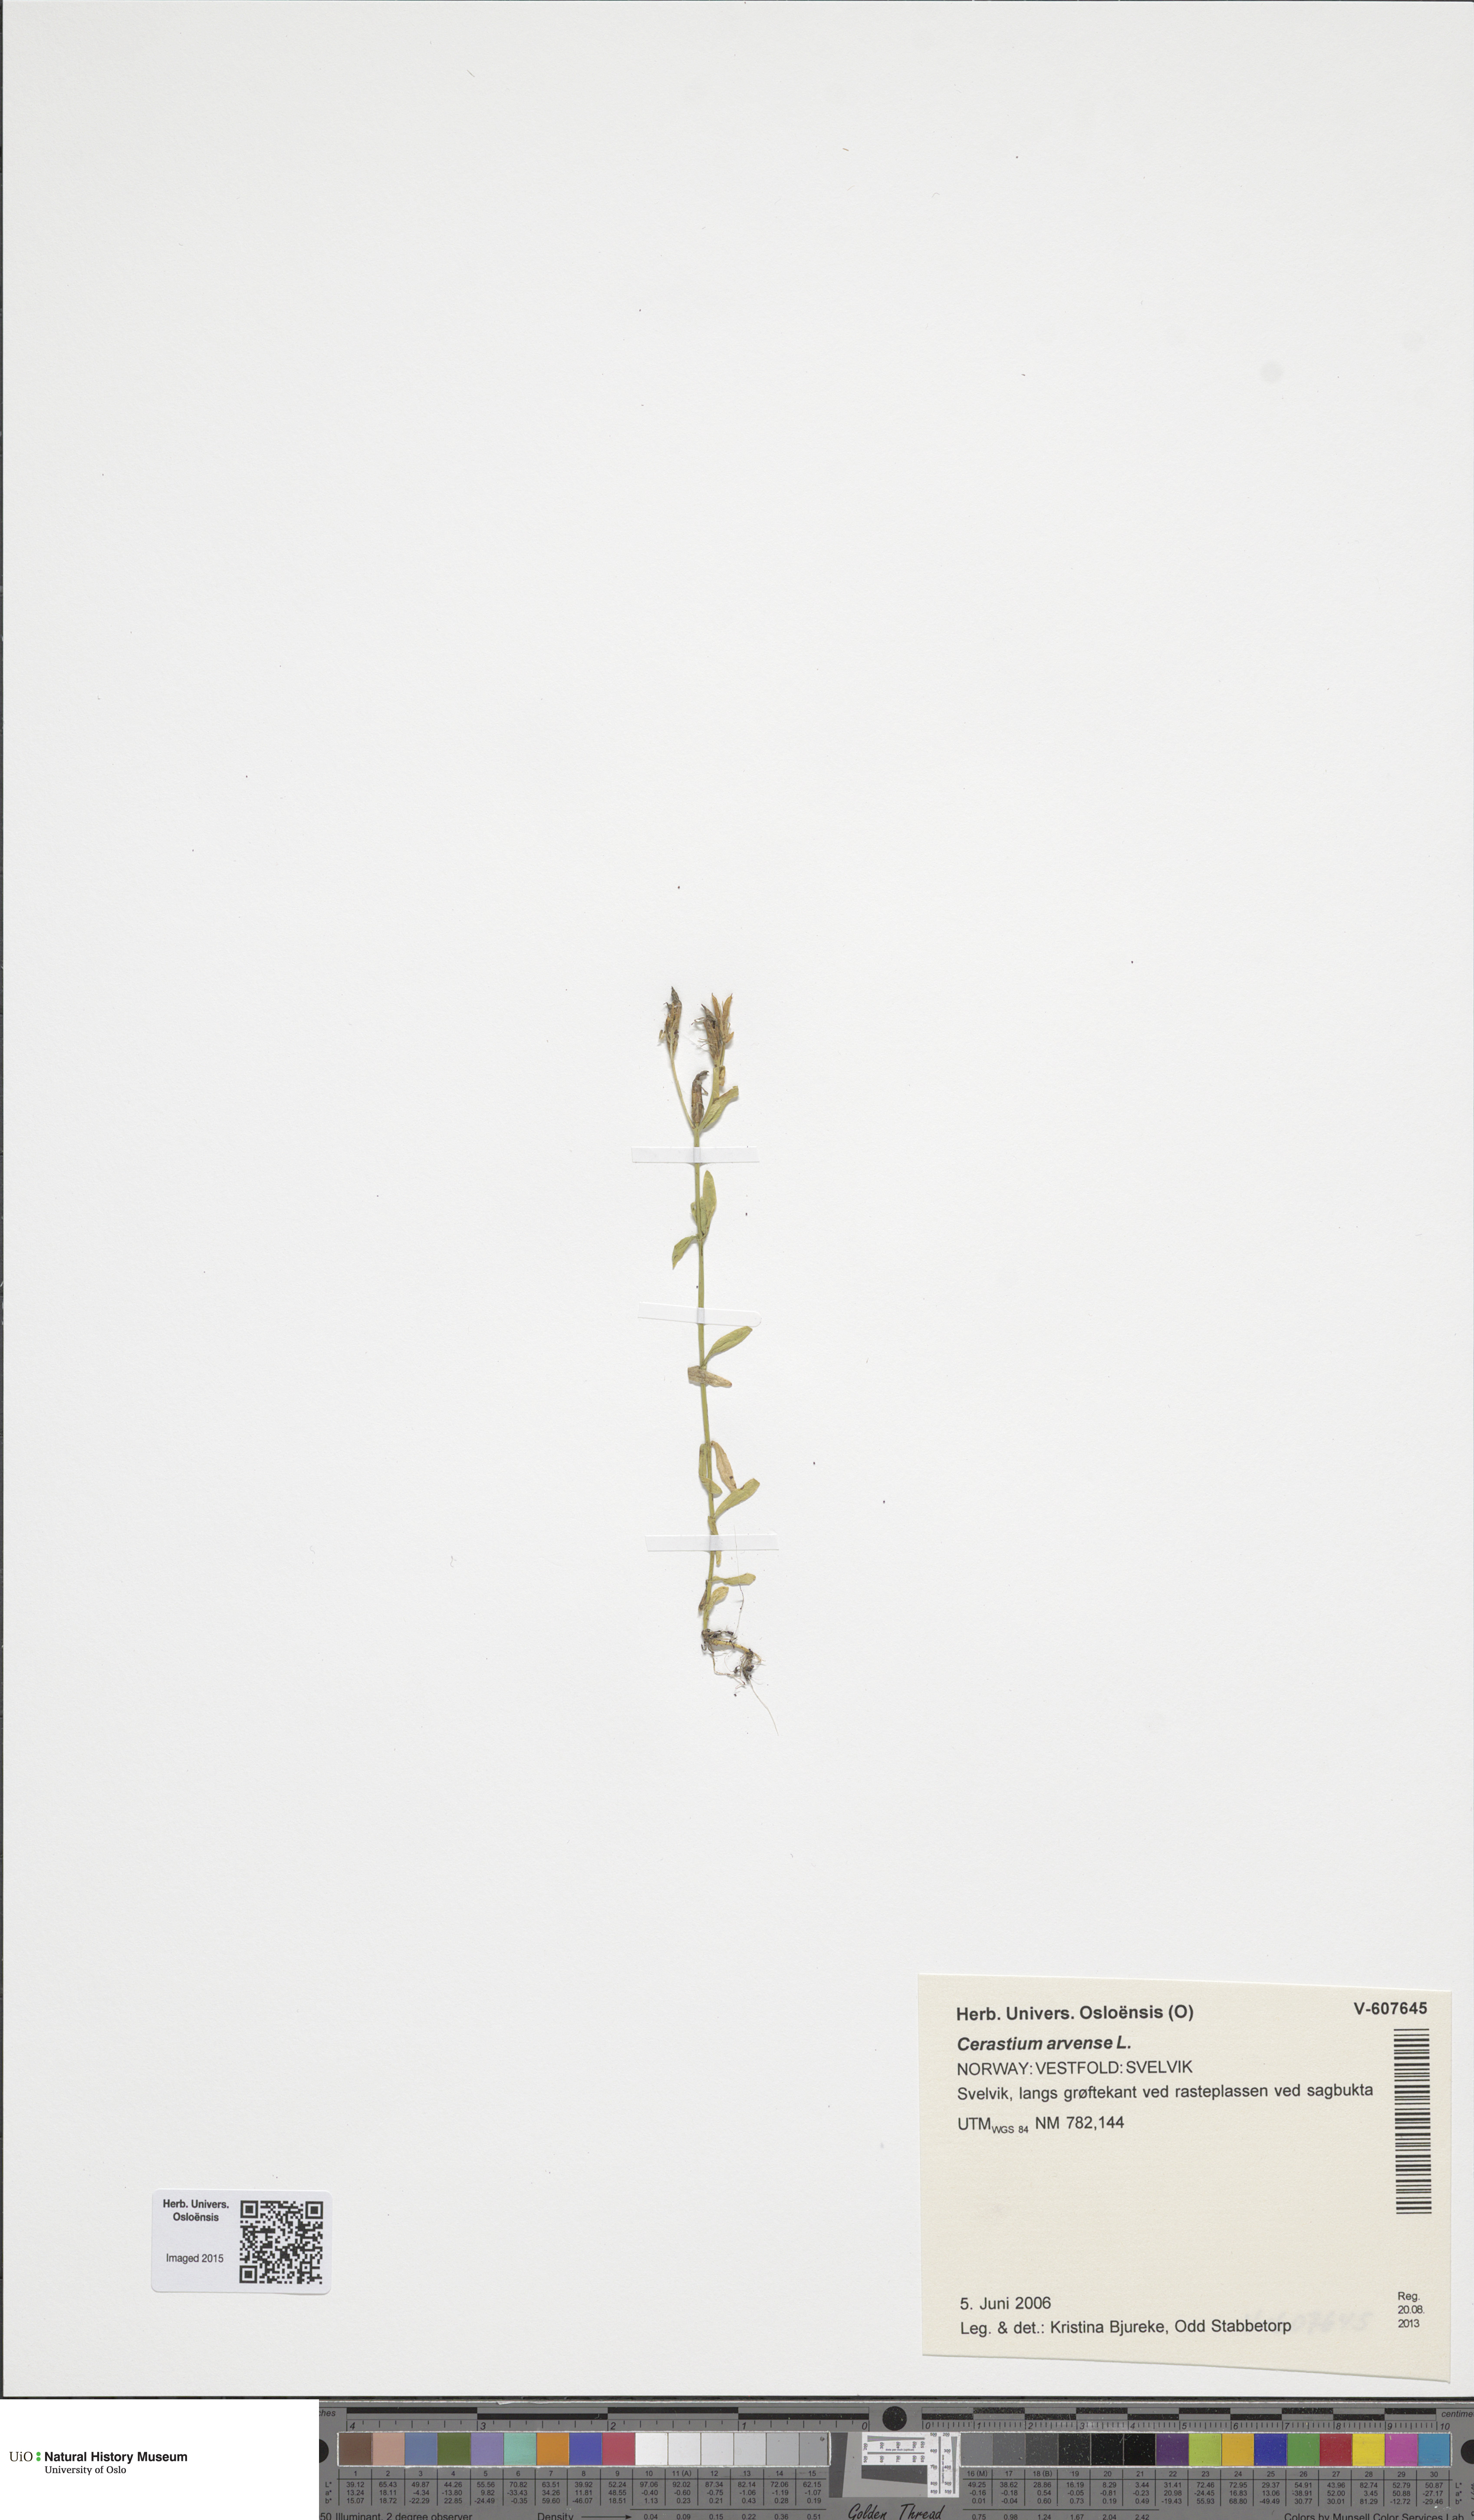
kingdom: Plantae
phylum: Tracheophyta
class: Magnoliopsida
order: Gentianales
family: Gentianaceae
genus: Centaurium
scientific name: Centaurium littorale
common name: Seaside centaury
